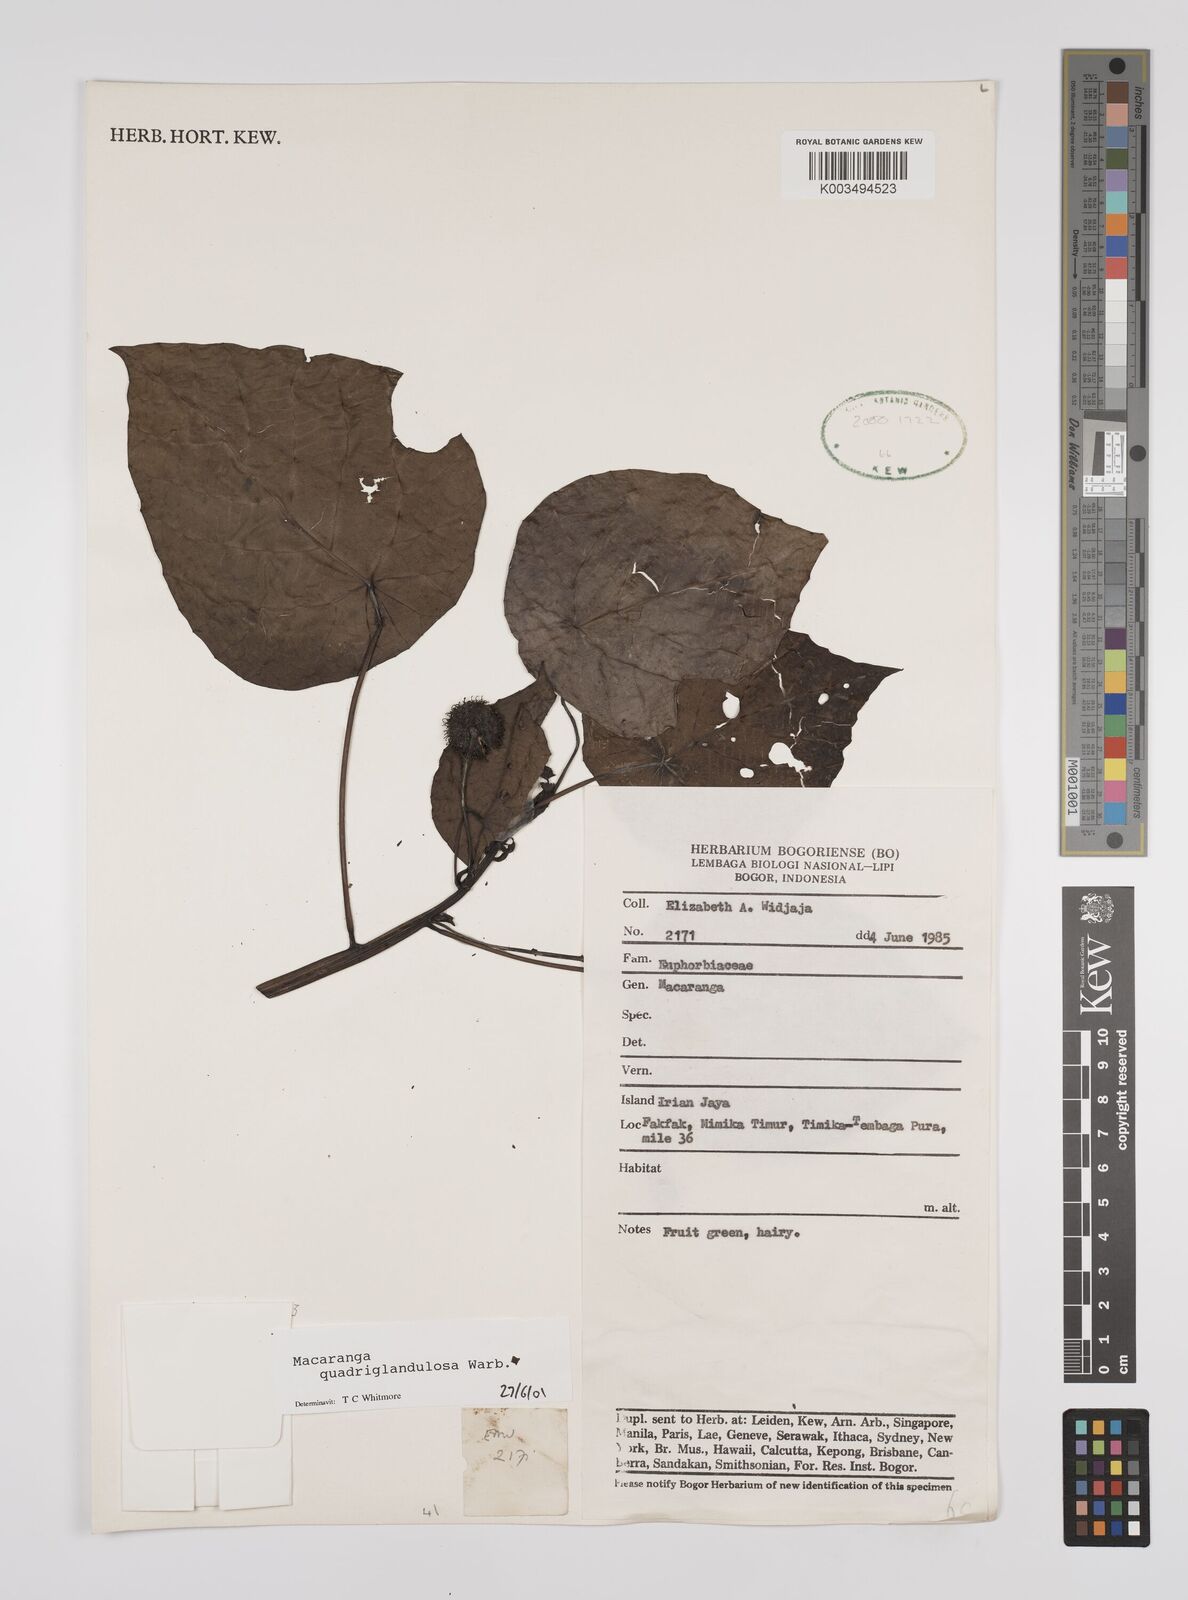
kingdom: Plantae
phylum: Tracheophyta
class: Magnoliopsida
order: Malpighiales
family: Euphorbiaceae
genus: Macaranga
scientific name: Macaranga quadriglandulosa
